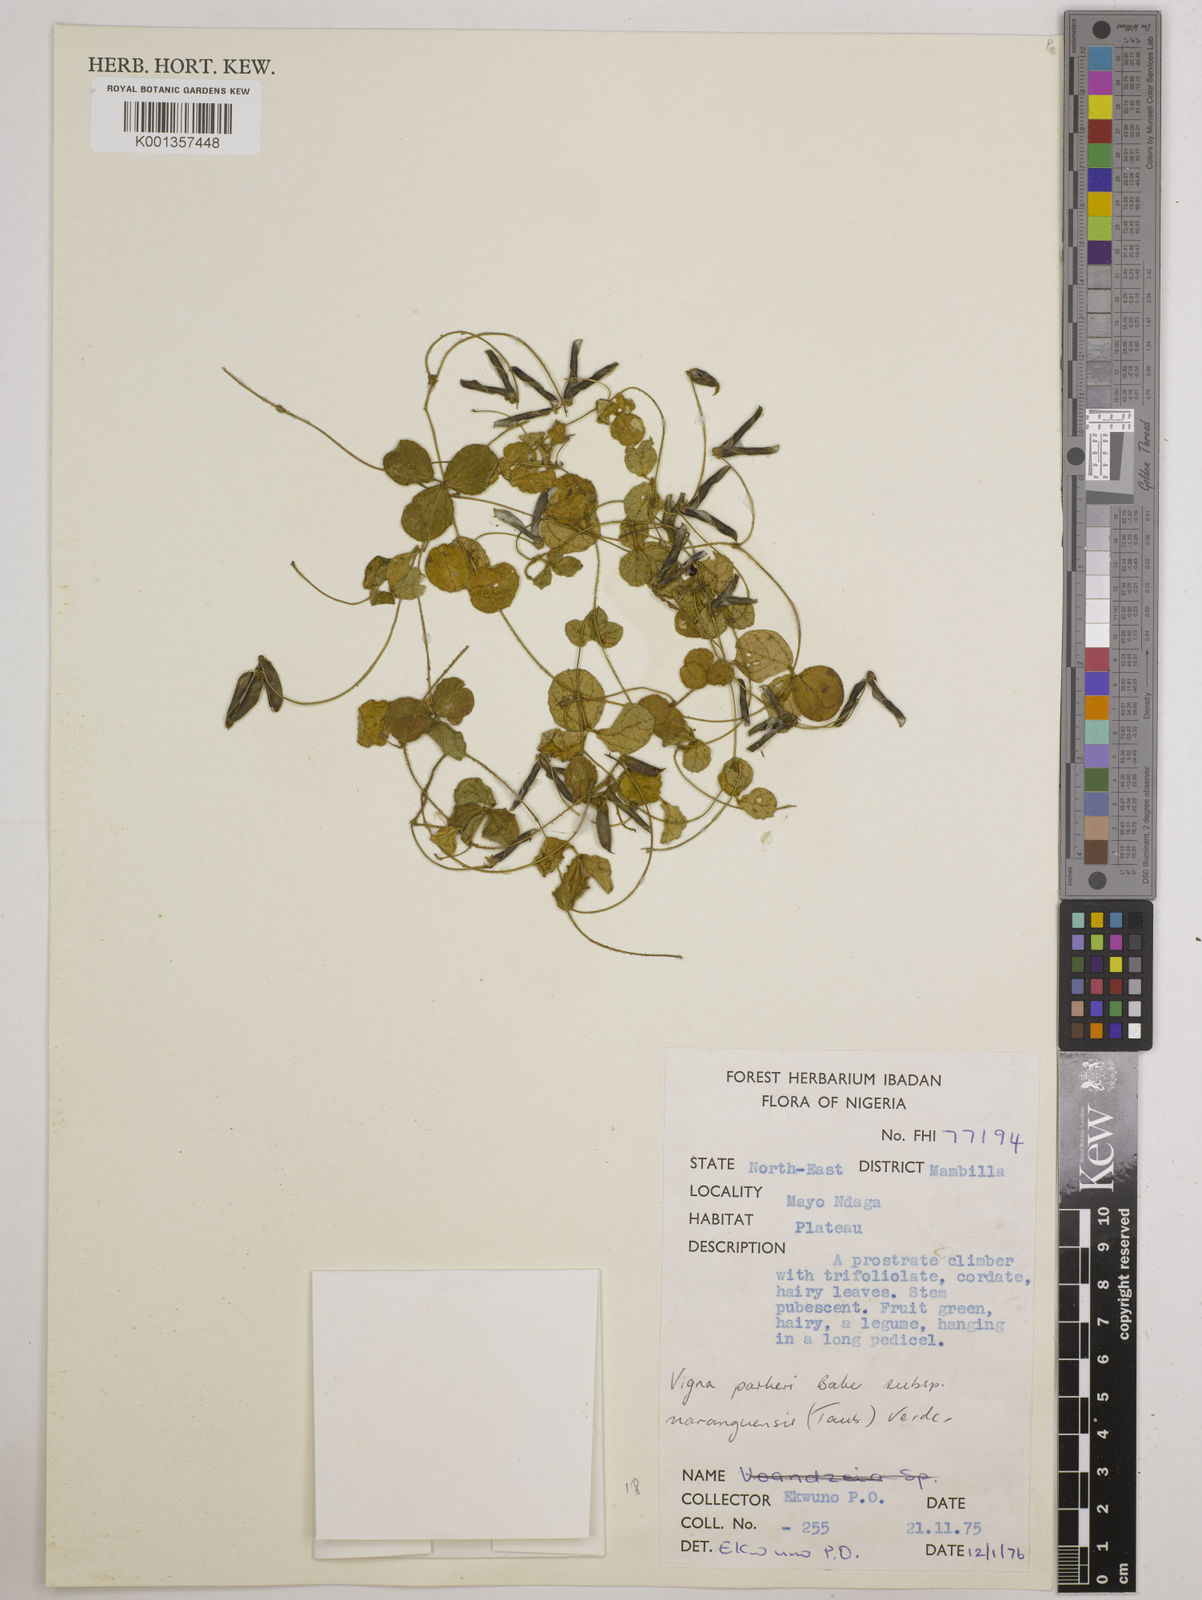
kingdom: Plantae
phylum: Tracheophyta
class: Magnoliopsida
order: Fabales
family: Fabaceae
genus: Vigna
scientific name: Vigna parkeri
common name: Creeping vigna
